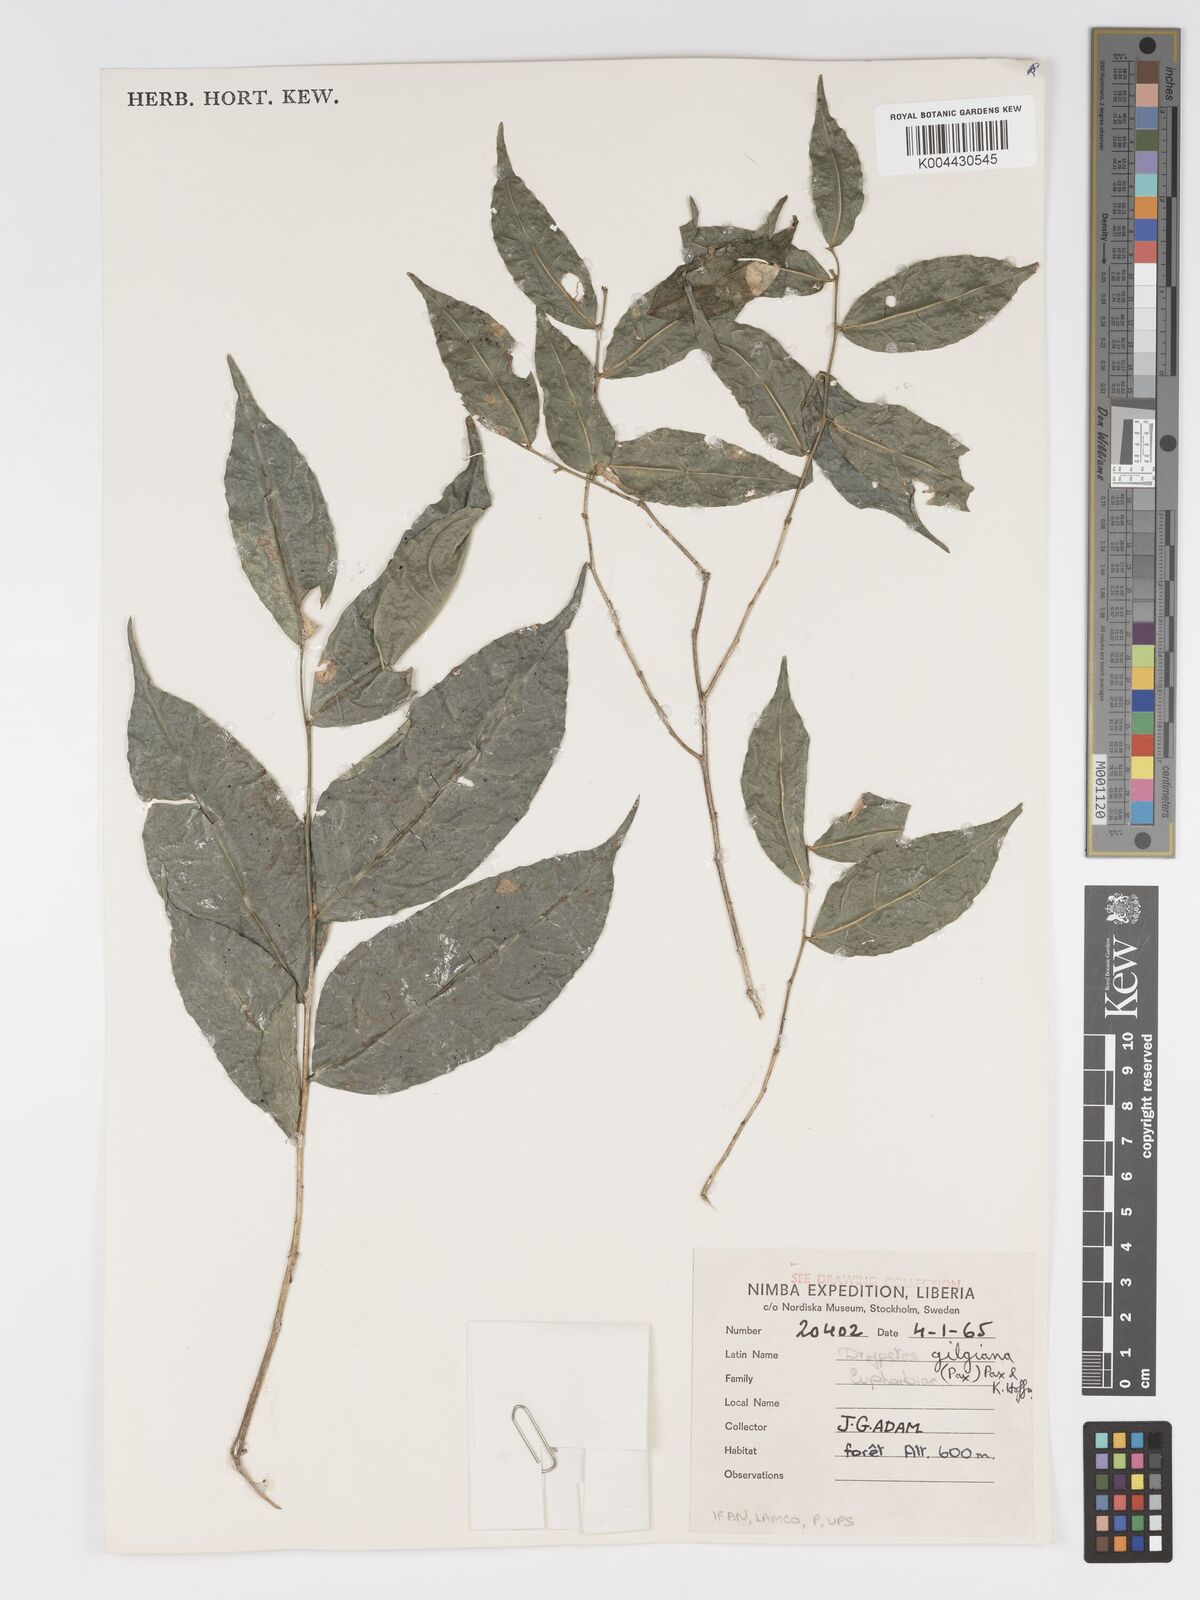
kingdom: Plantae
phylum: Tracheophyta
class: Magnoliopsida
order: Malpighiales
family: Putranjivaceae
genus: Drypetes
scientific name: Drypetes gilgiana
